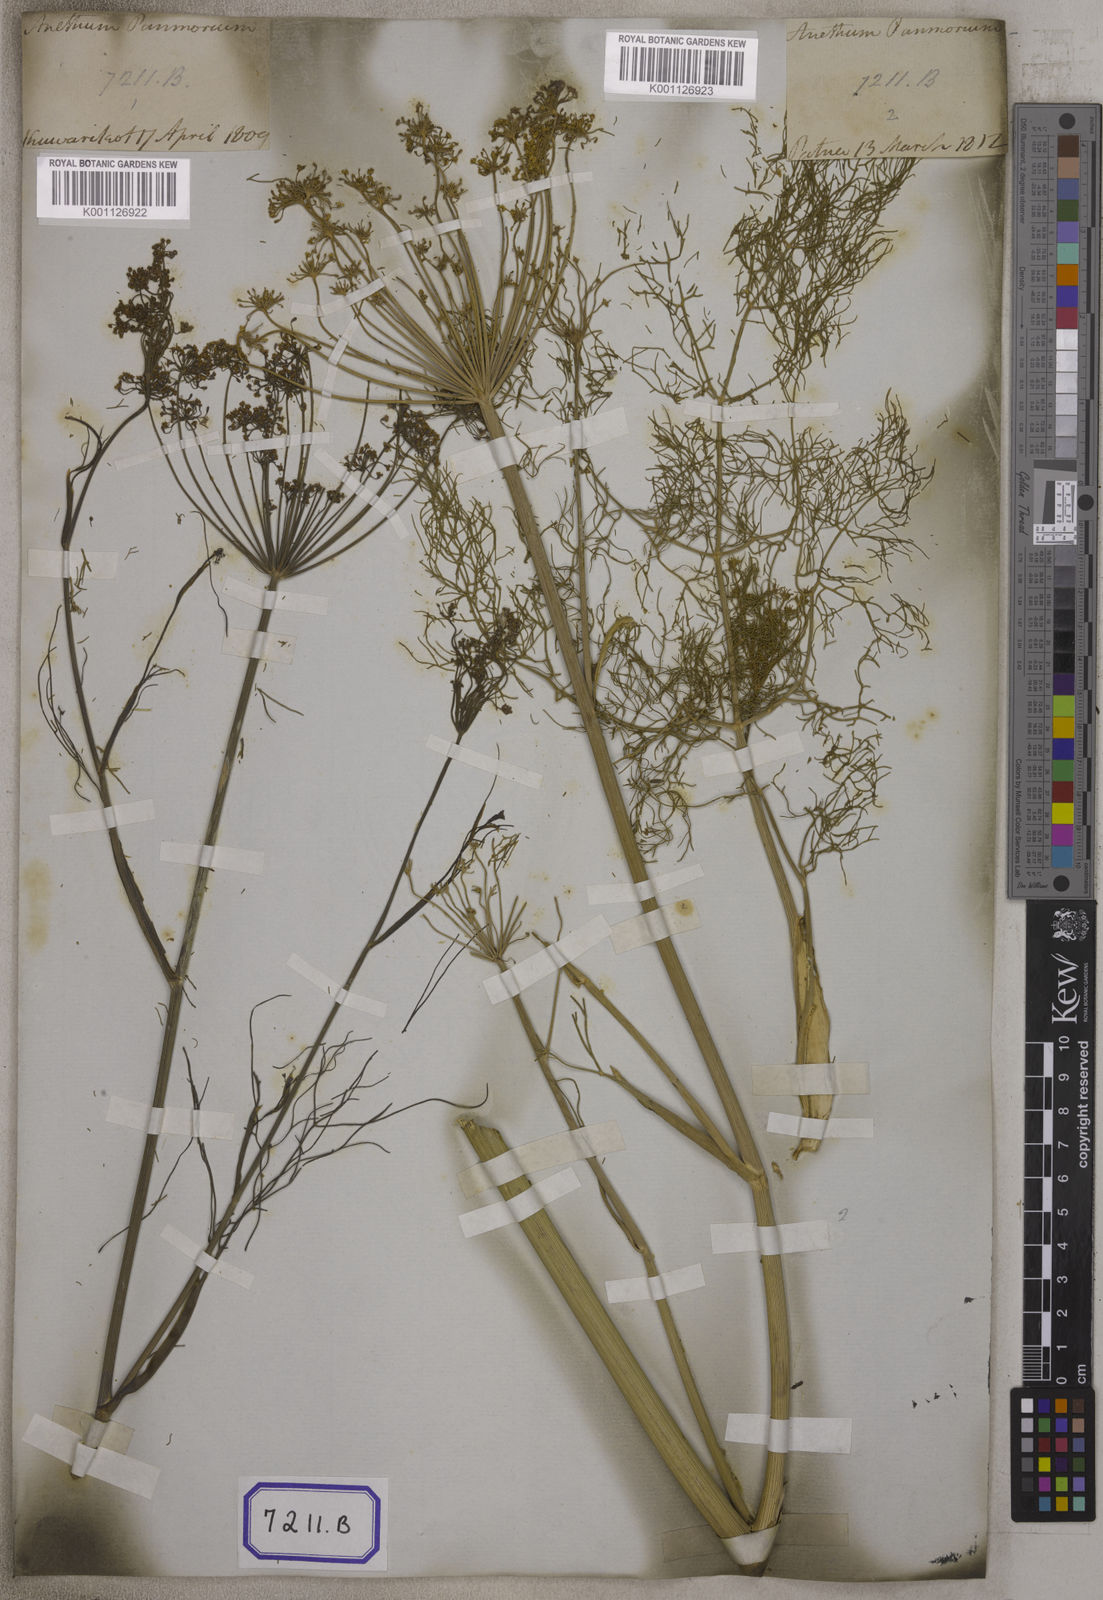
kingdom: Plantae
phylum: Tracheophyta
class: Magnoliopsida
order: Apiales
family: Apiaceae
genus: Anethum
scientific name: Anethum
